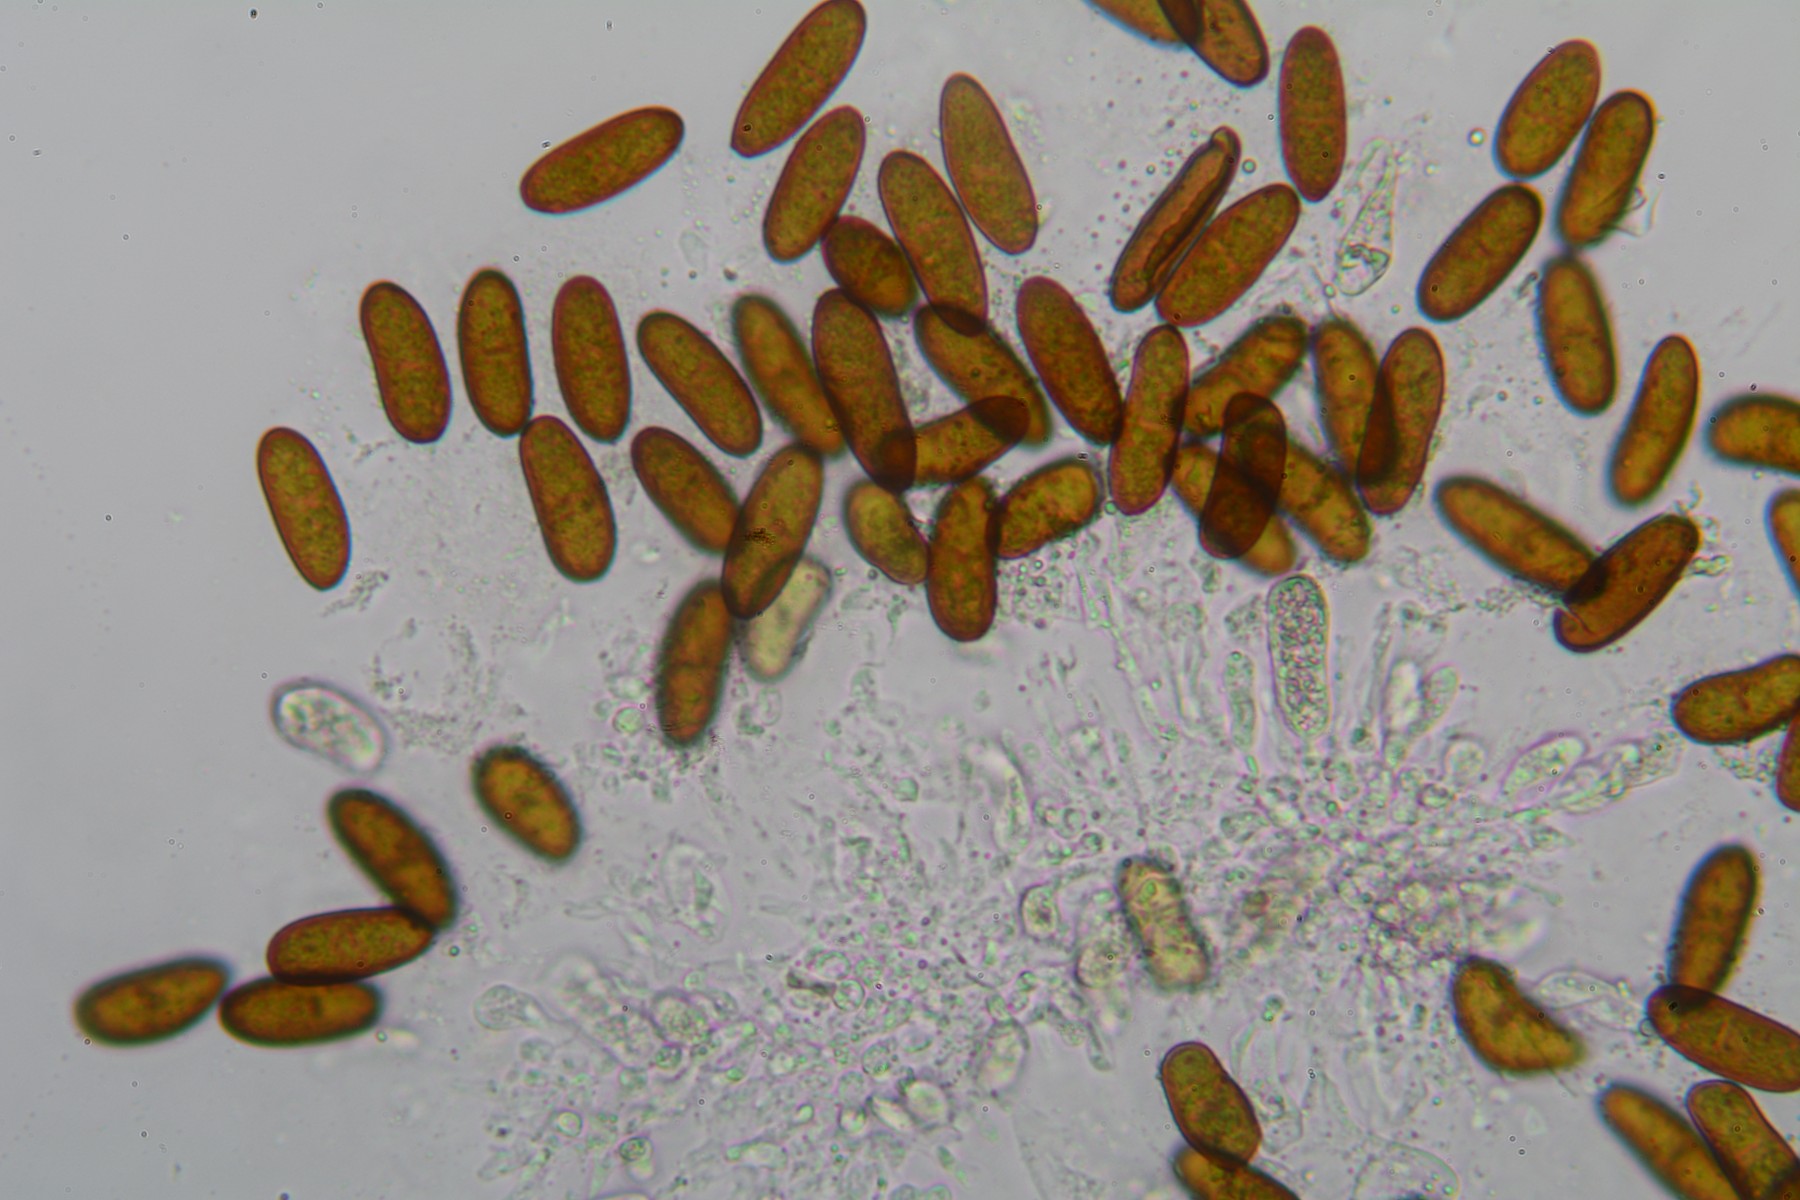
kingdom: Fungi
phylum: Ascomycota
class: Dothideomycetes
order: Botryosphaeriales
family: Botryosphaeriaceae
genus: Sphaeropsis
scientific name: Sphaeropsis sapinea
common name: Sphaeropsis blight
